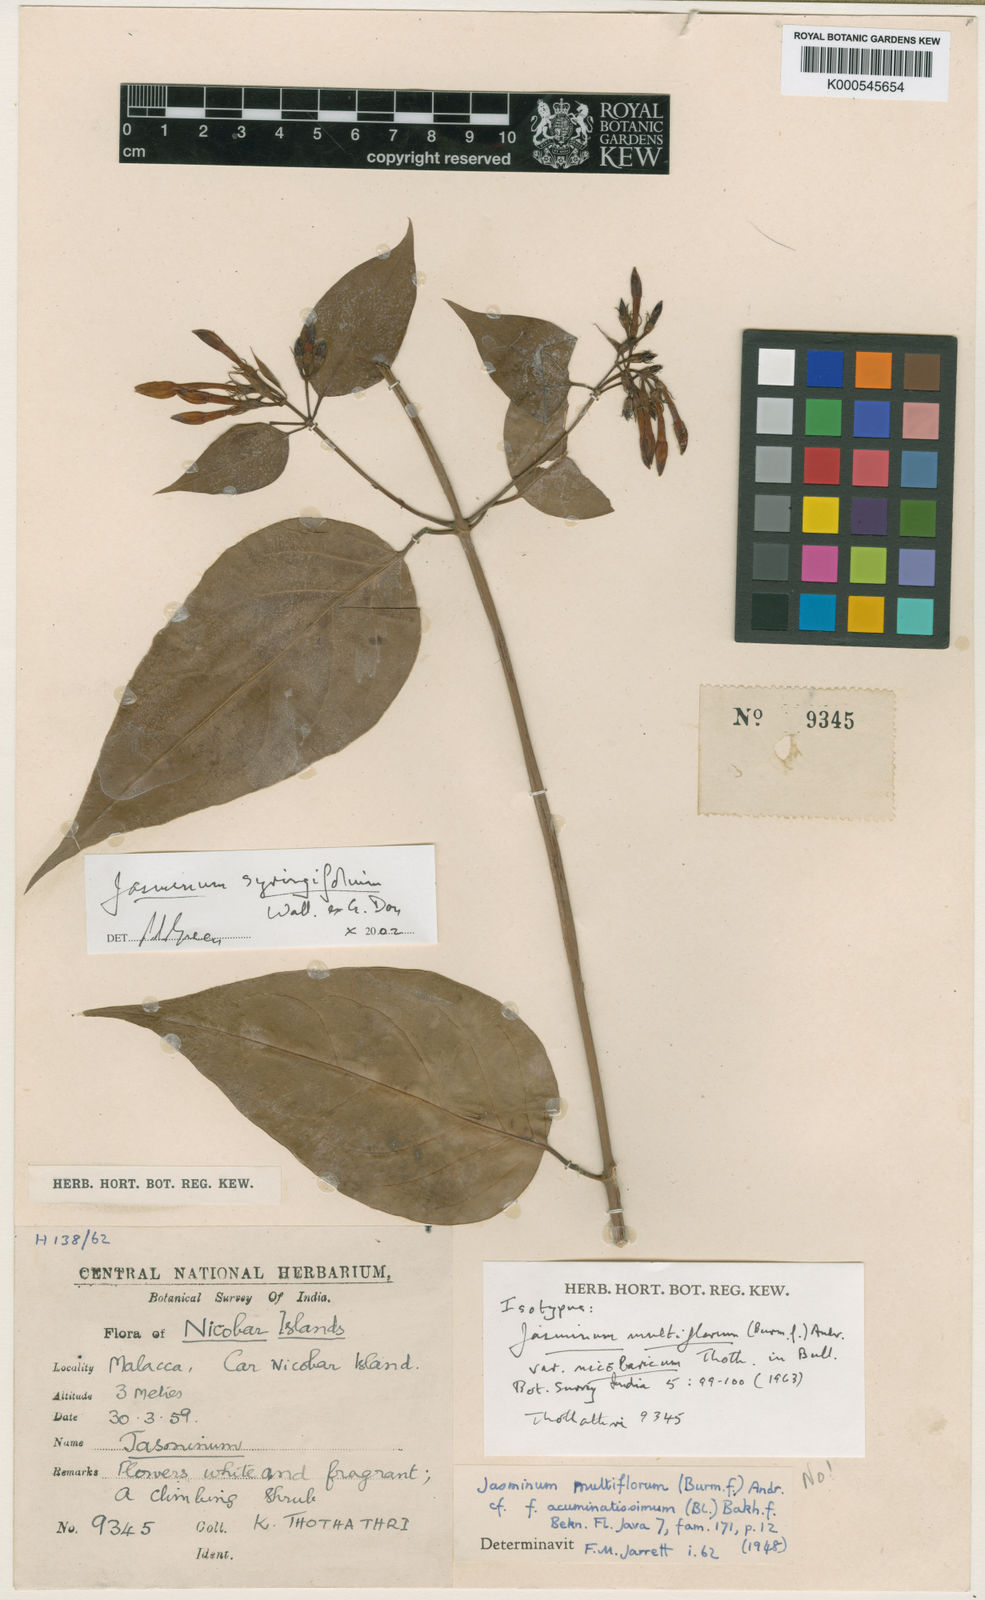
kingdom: Plantae
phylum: Tracheophyta
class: Magnoliopsida
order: Lamiales
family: Oleaceae
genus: Jasminum
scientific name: Jasminum syringifolium
